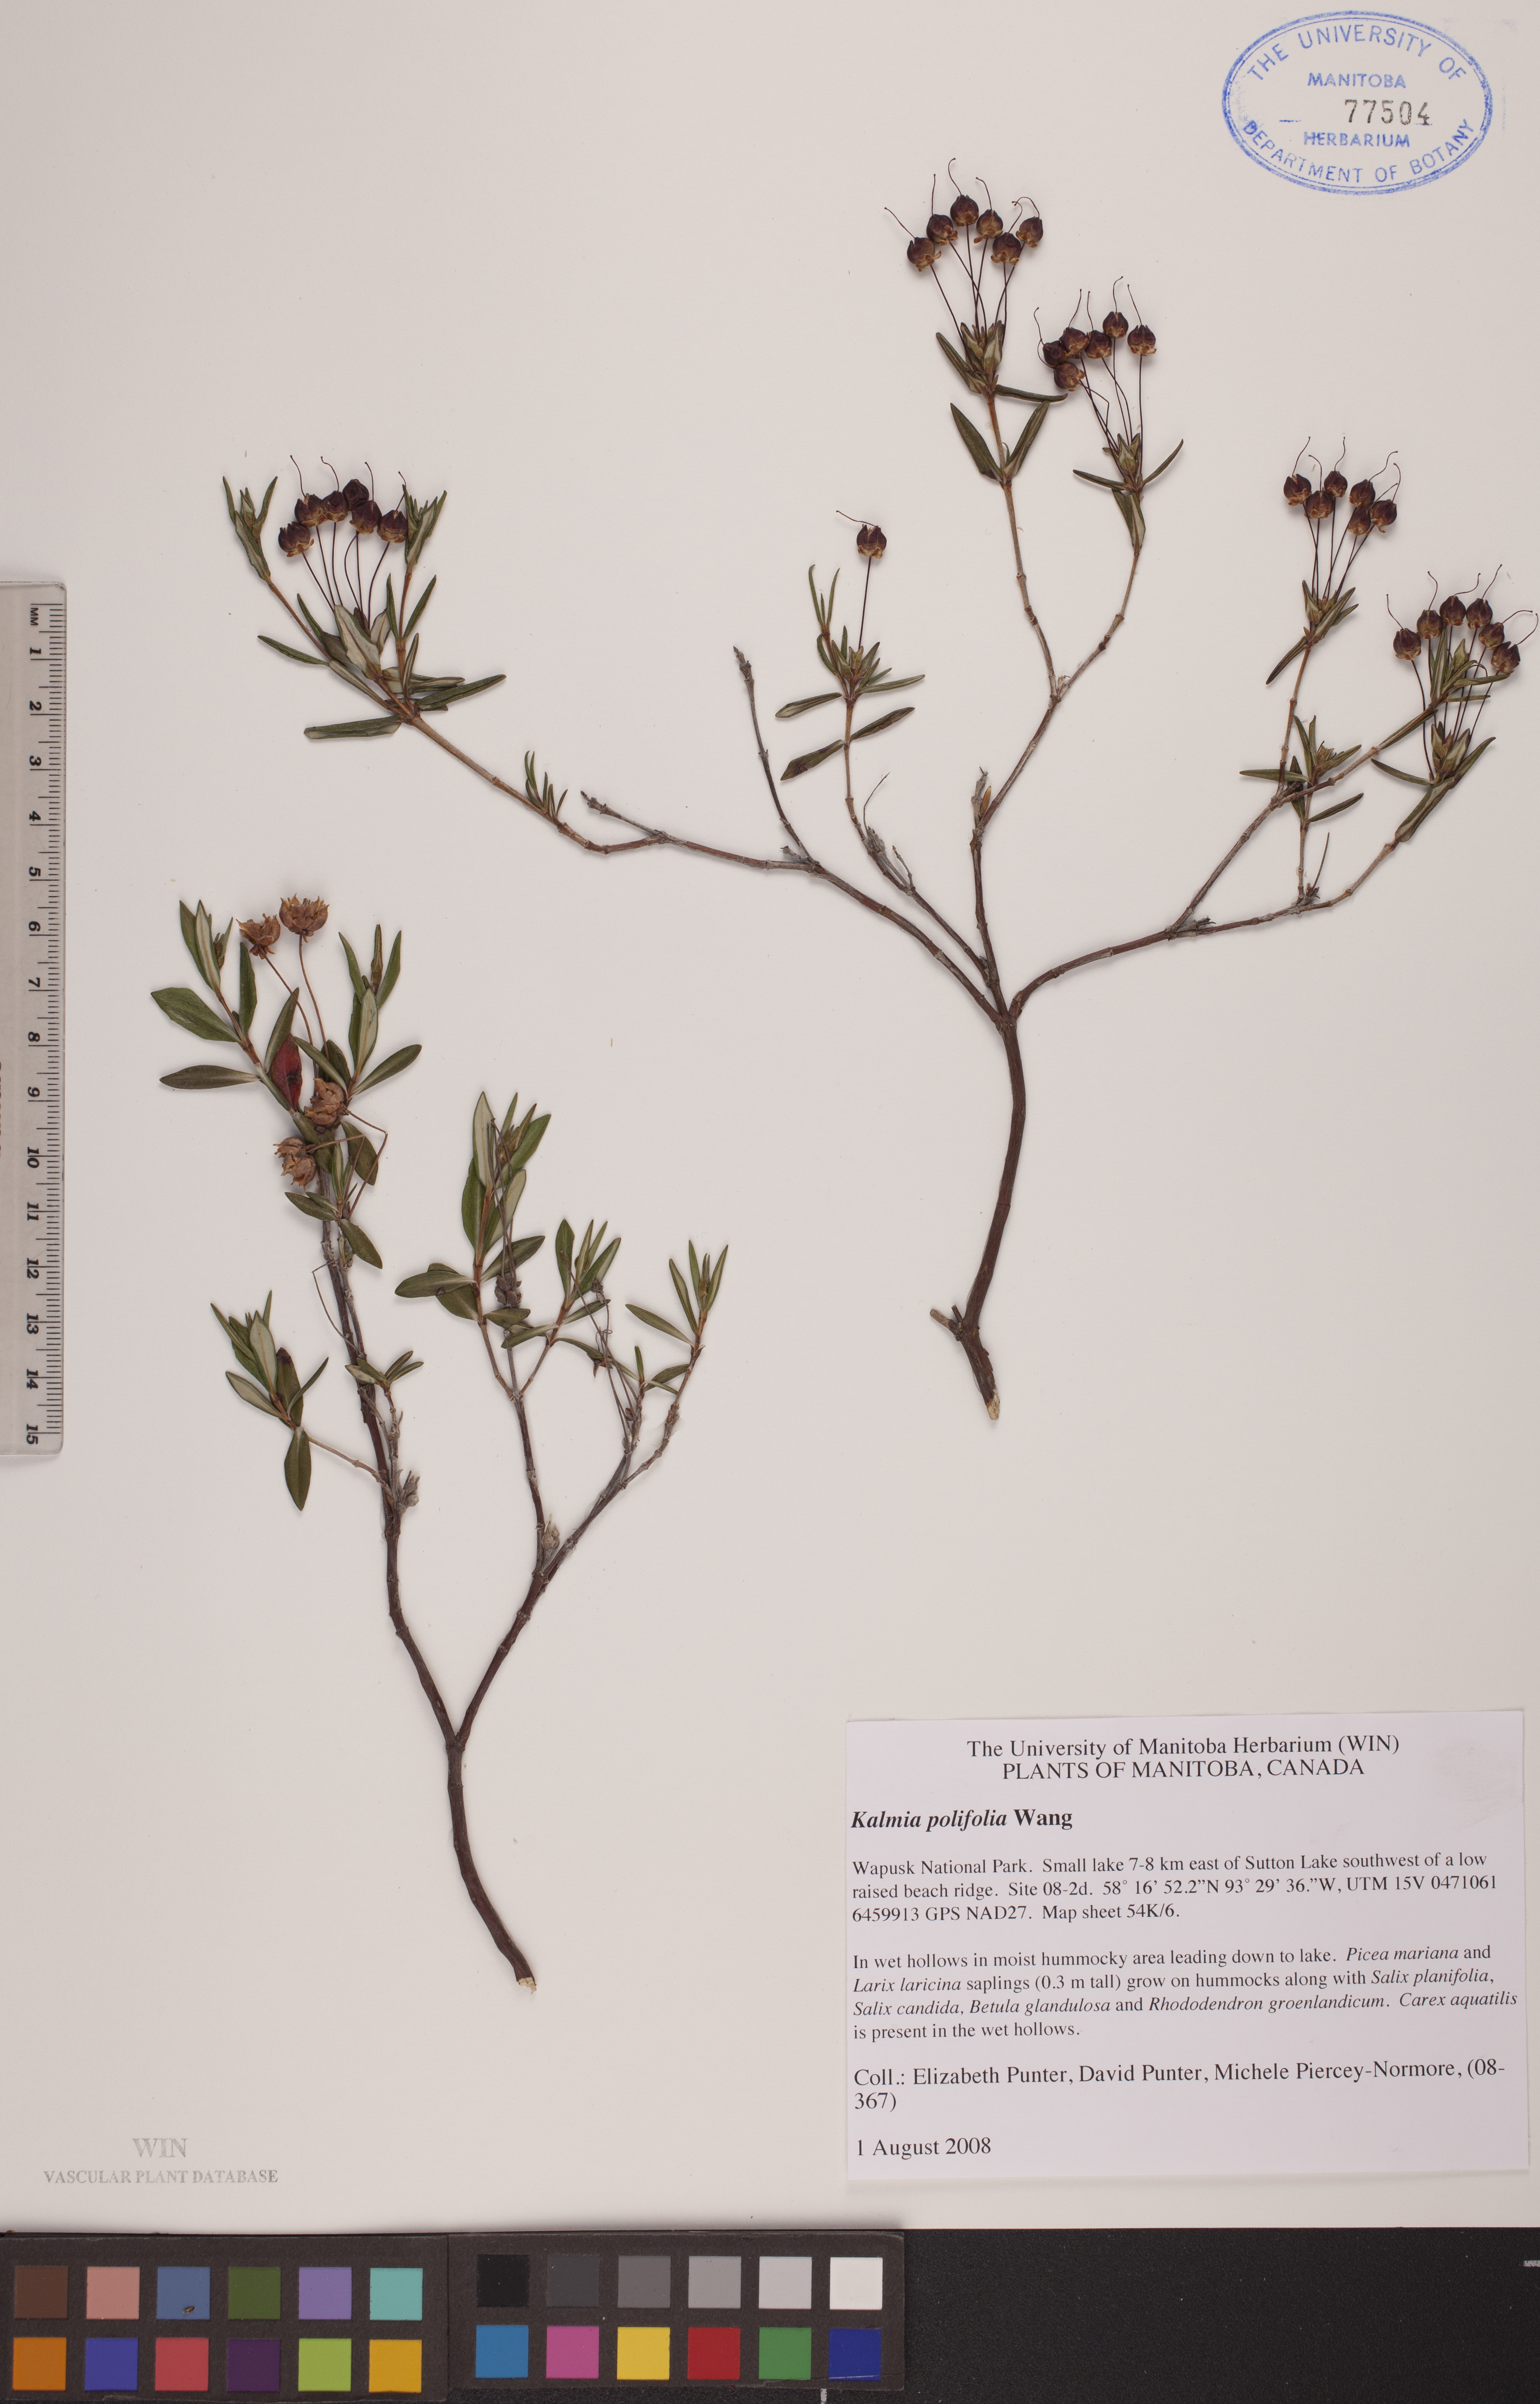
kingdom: Plantae
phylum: Tracheophyta
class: Magnoliopsida
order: Ericales
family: Ericaceae
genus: Kalmia
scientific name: Kalmia polifolia
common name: Bog-laurel
